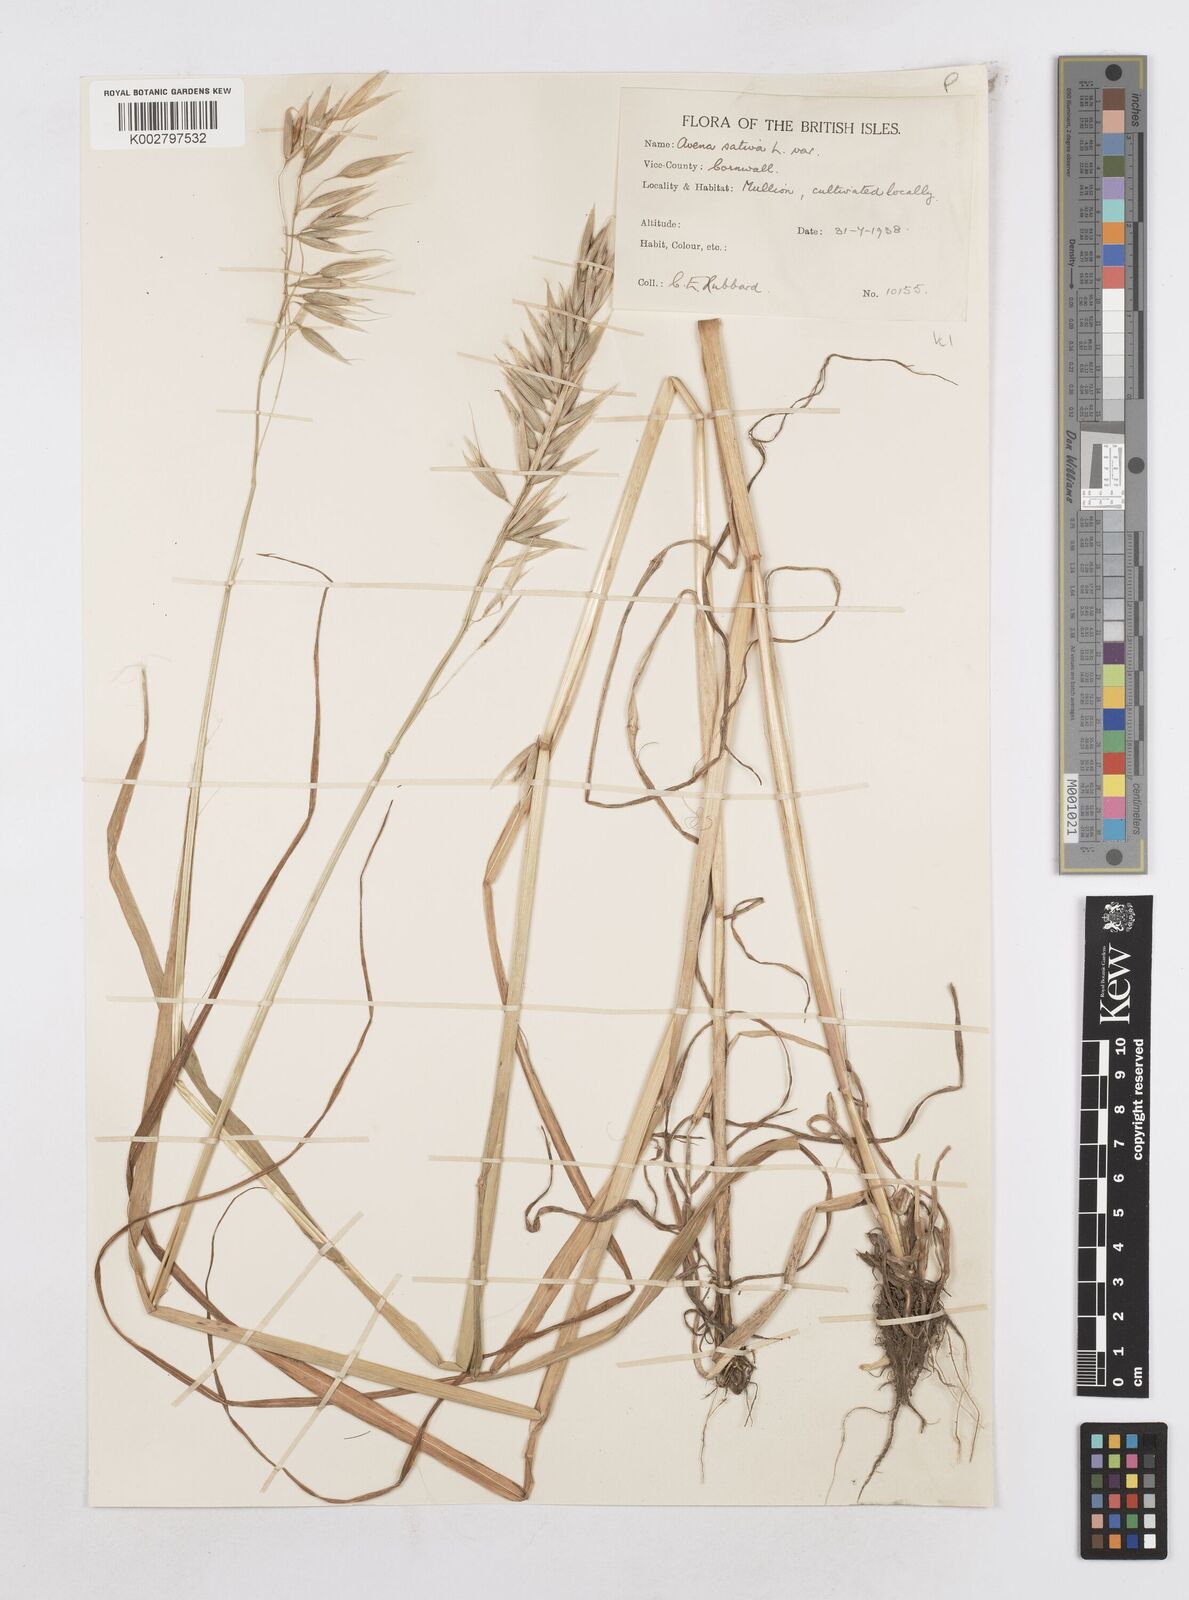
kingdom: Plantae
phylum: Tracheophyta
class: Liliopsida
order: Poales
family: Poaceae
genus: Avena
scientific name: Avena sativa
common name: Oat
